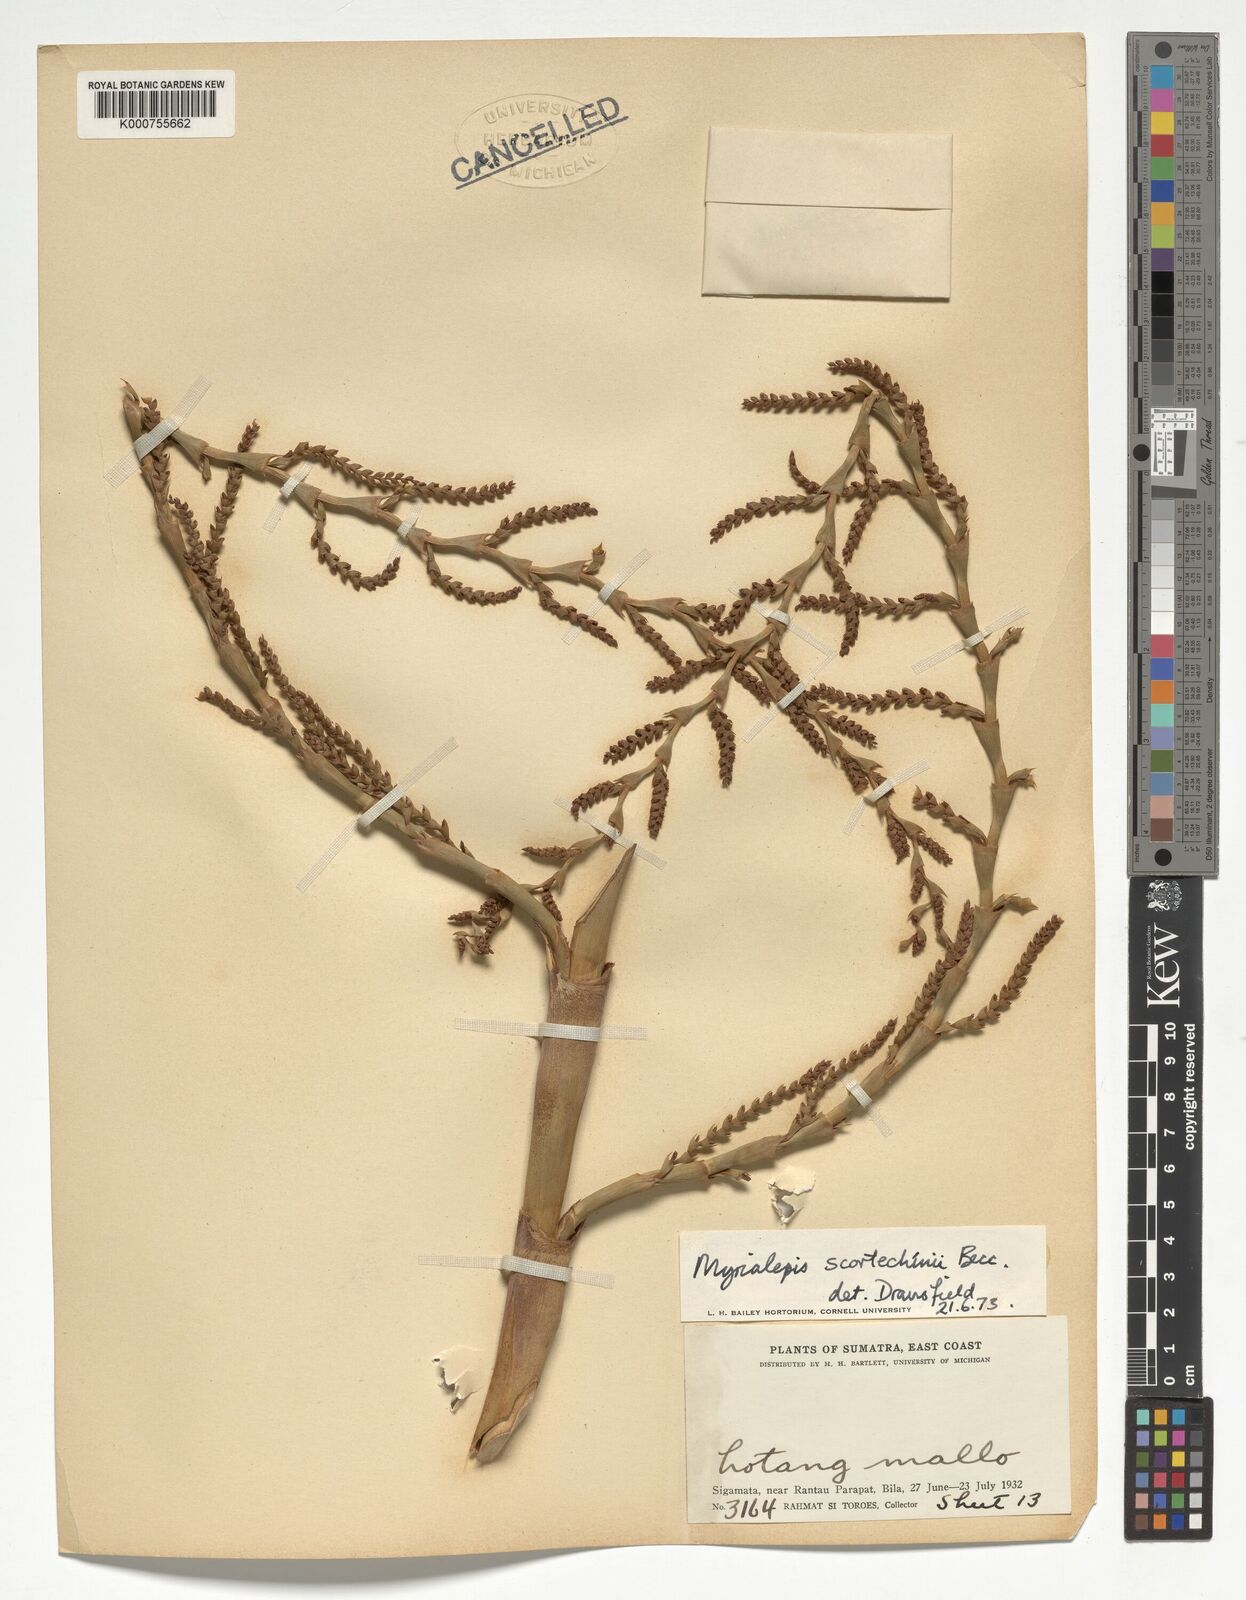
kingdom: Plantae
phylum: Tracheophyta
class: Liliopsida
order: Arecales
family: Arecaceae
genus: Myrialepis
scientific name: Myrialepis paradoxa
